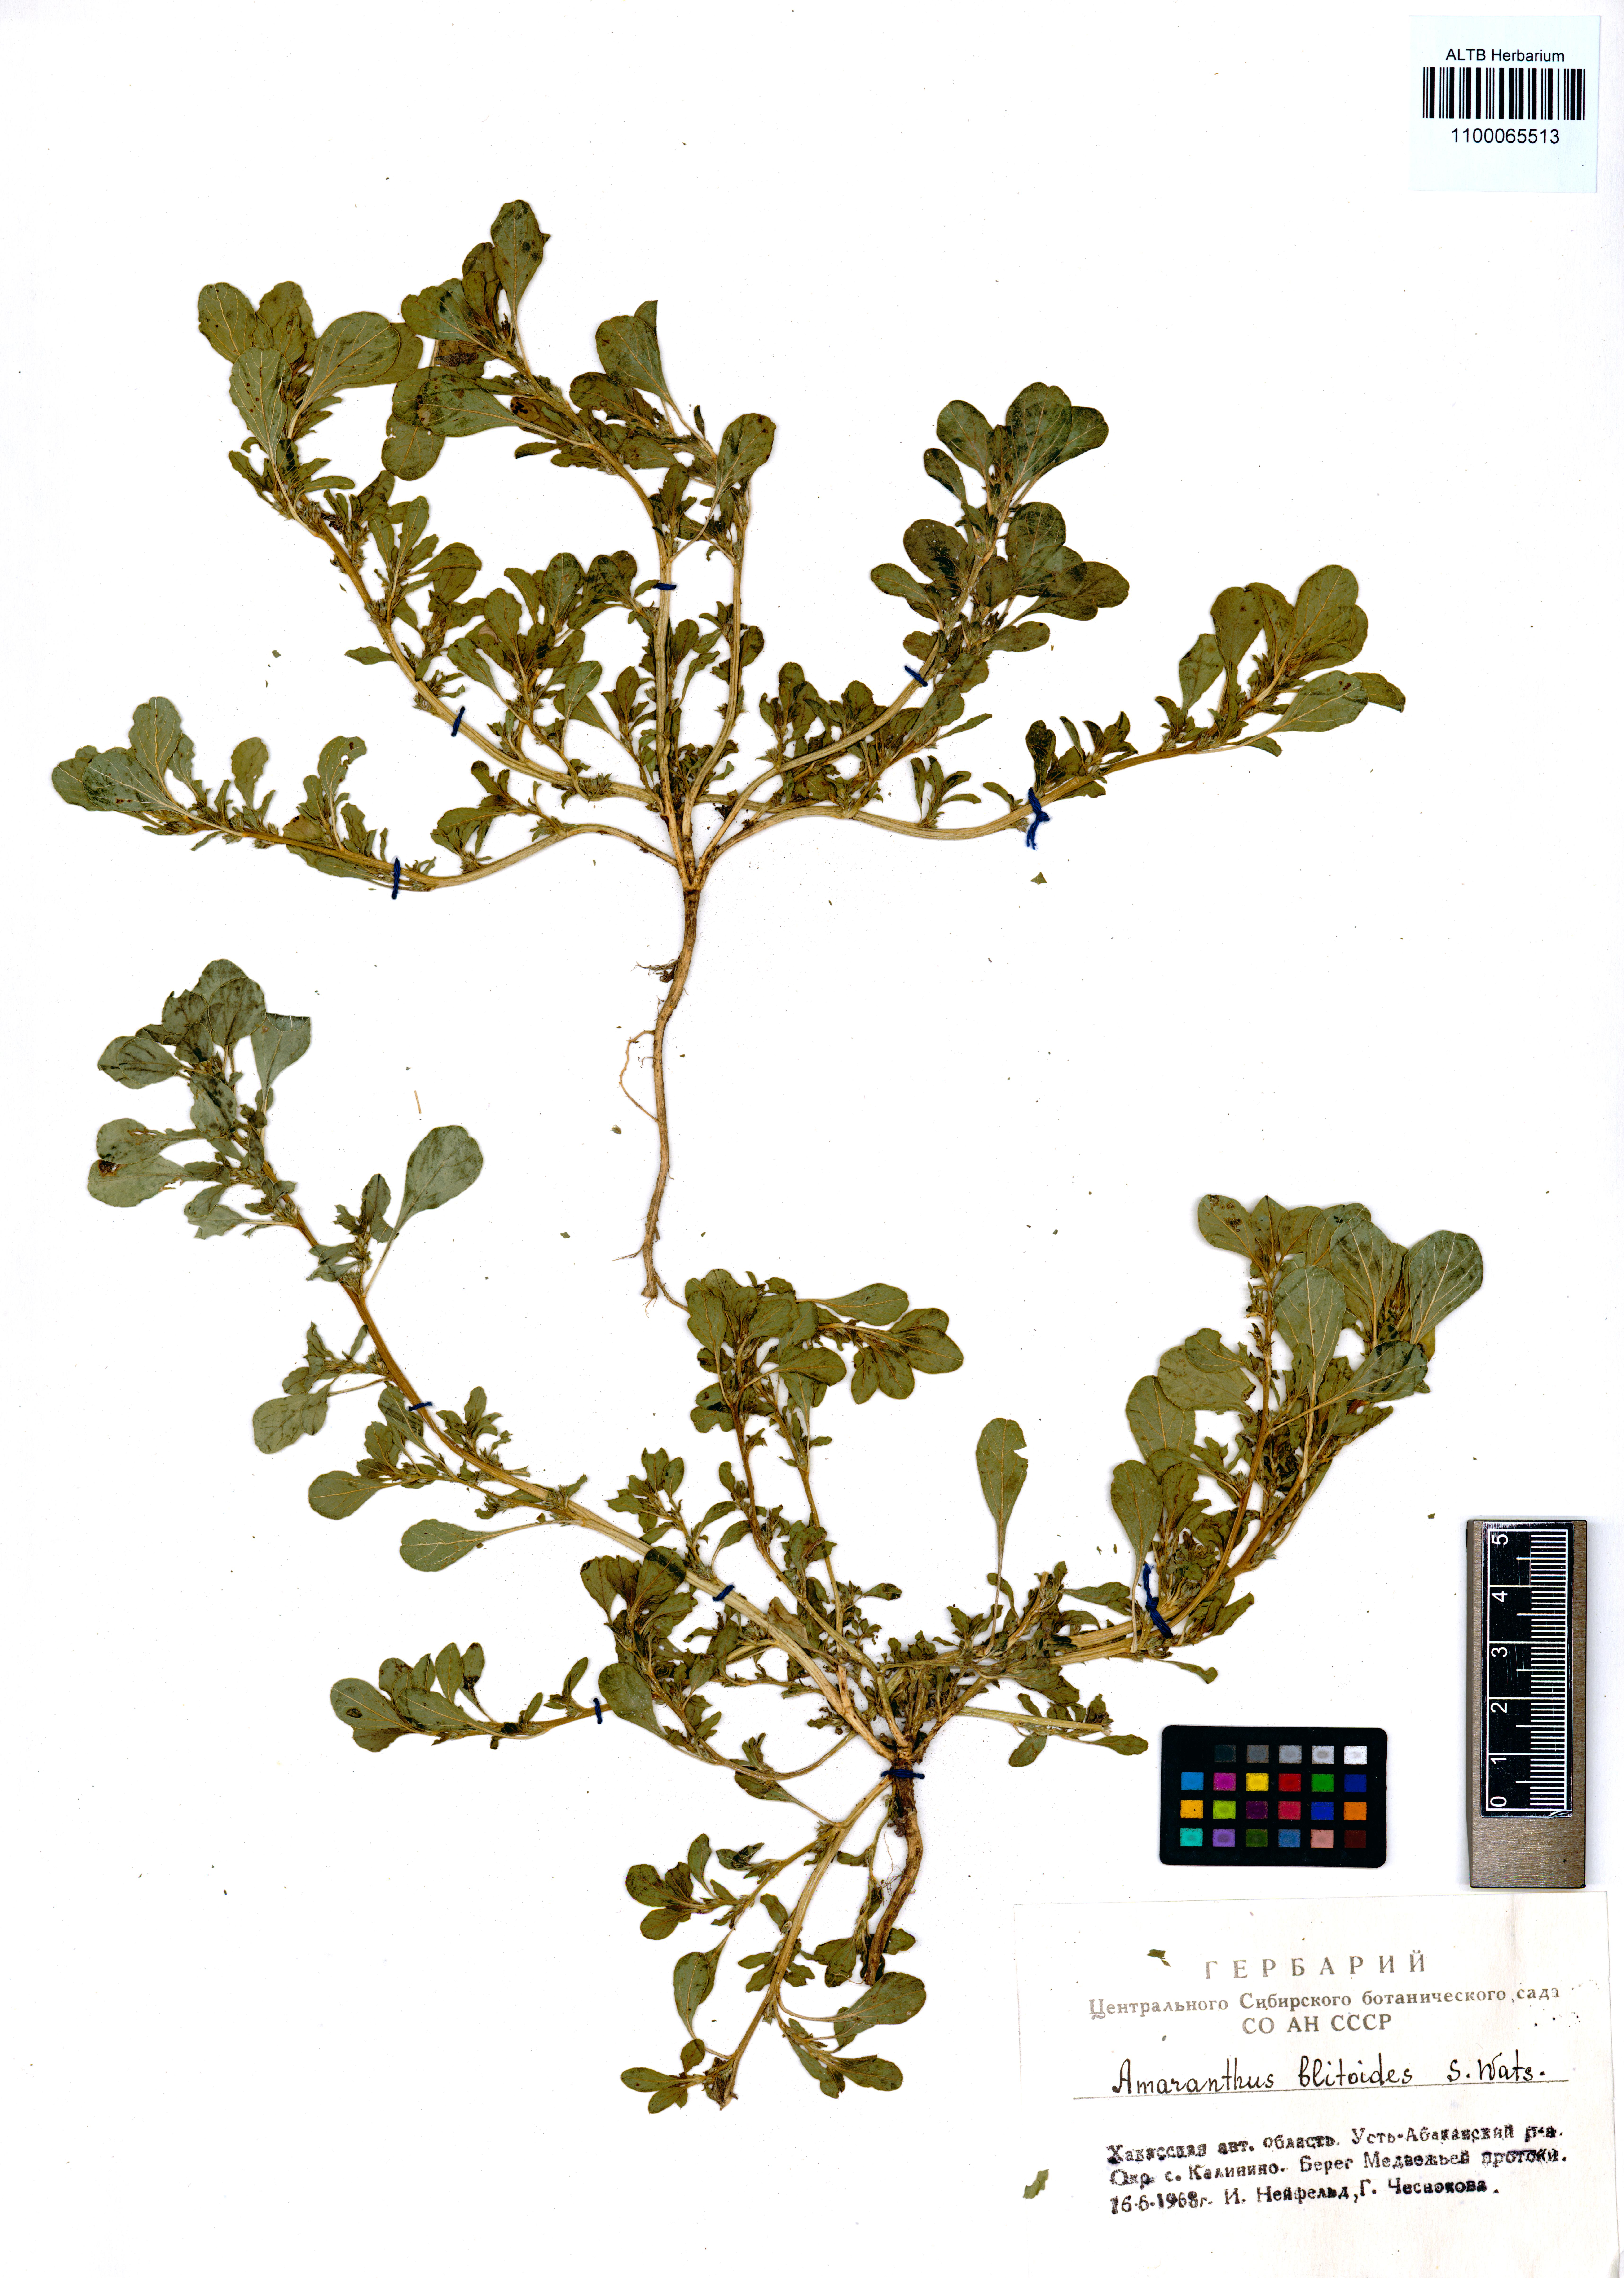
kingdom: Plantae
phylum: Tracheophyta
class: Magnoliopsida
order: Caryophyllales
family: Amaranthaceae
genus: Amaranthus
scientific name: Amaranthus blitoides
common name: Prostrate pigweed
